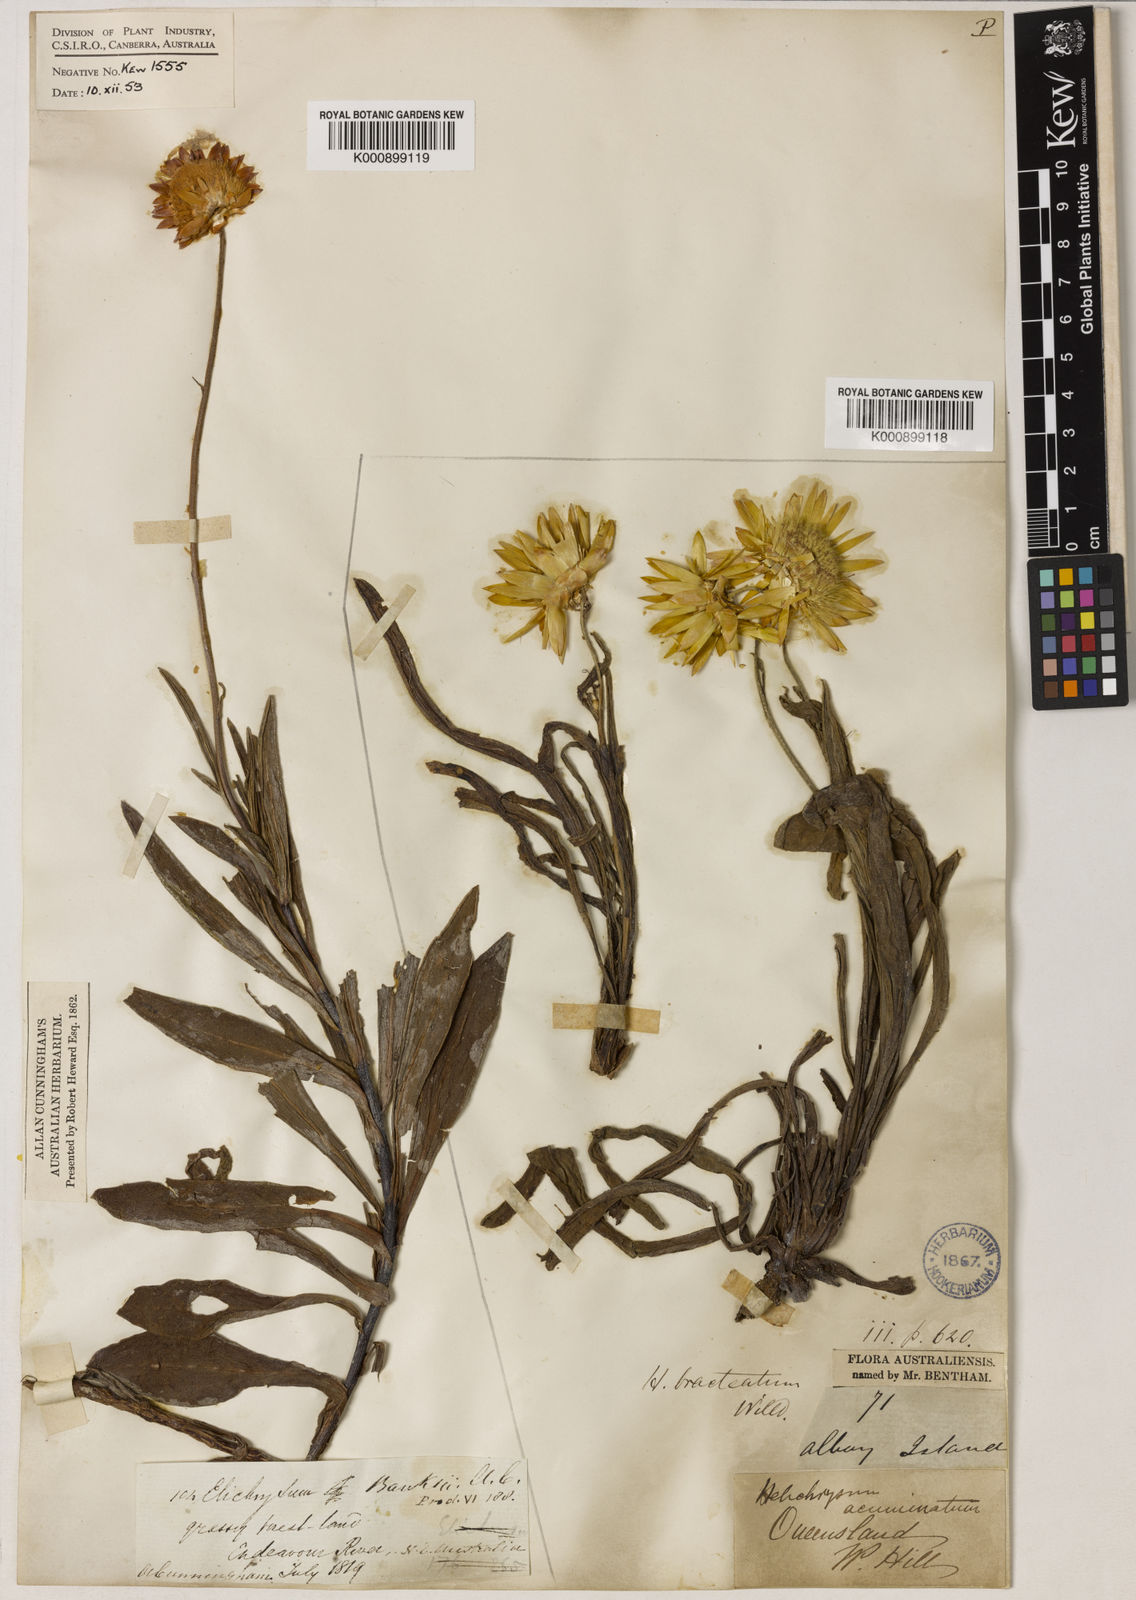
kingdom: Plantae
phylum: Tracheophyta
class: Magnoliopsida
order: Asterales
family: Asteraceae
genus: Xerochrysum
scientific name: Xerochrysum bracteatum
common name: Bracted strawflower
